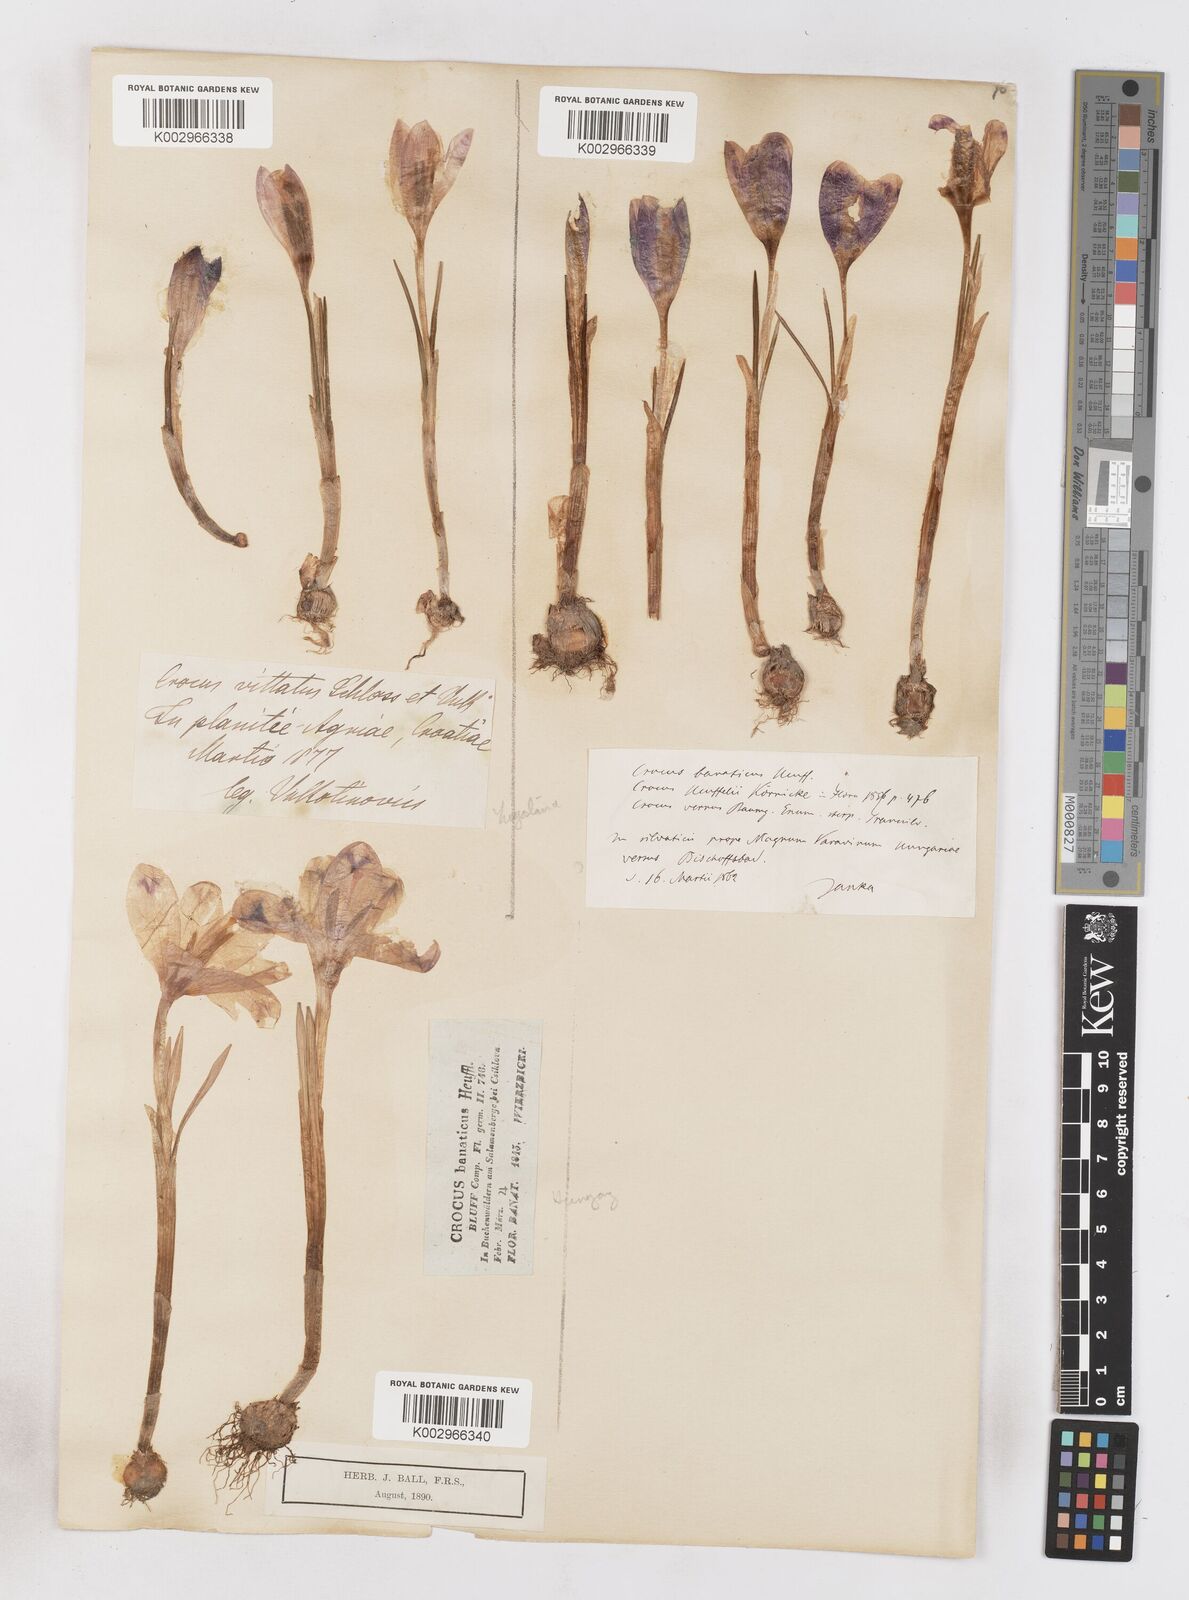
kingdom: Plantae
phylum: Tracheophyta
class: Liliopsida
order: Asparagales
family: Iridaceae
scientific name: Iridaceae
